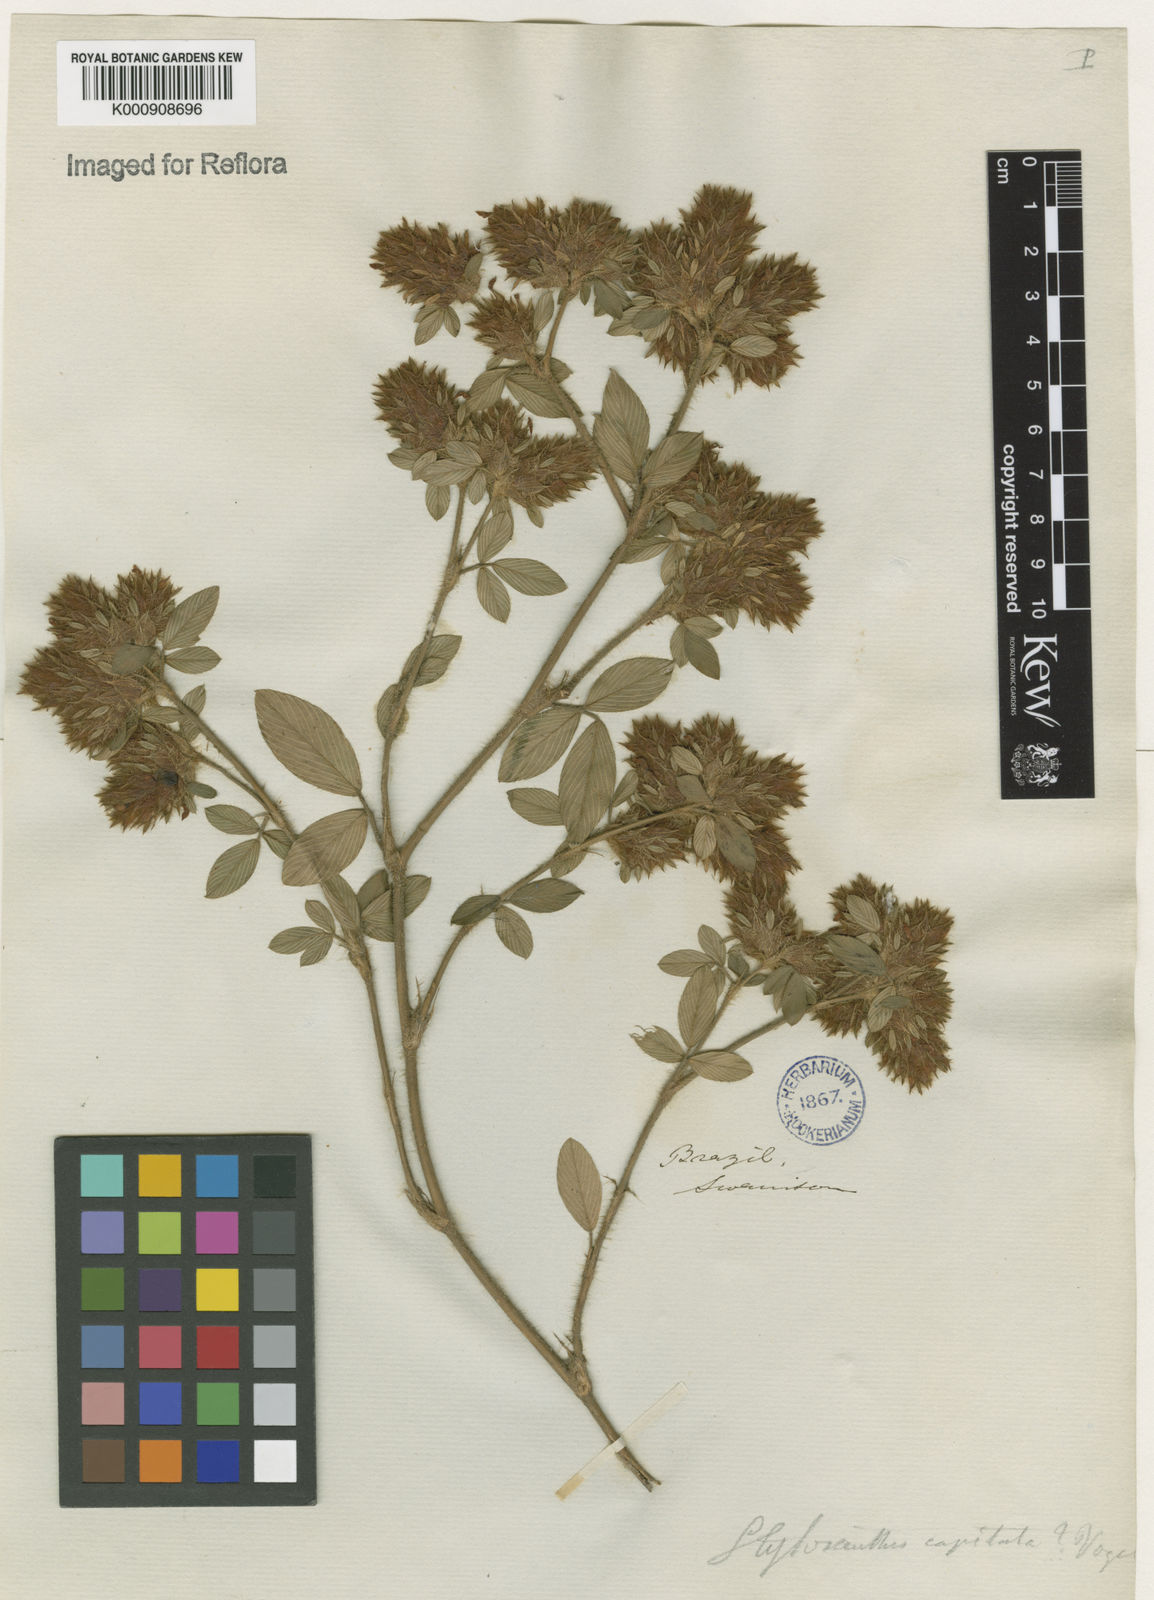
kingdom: Plantae
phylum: Tracheophyta
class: Magnoliopsida
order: Fabales
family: Fabaceae
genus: Stylosanthes
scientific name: Stylosanthes capitata
